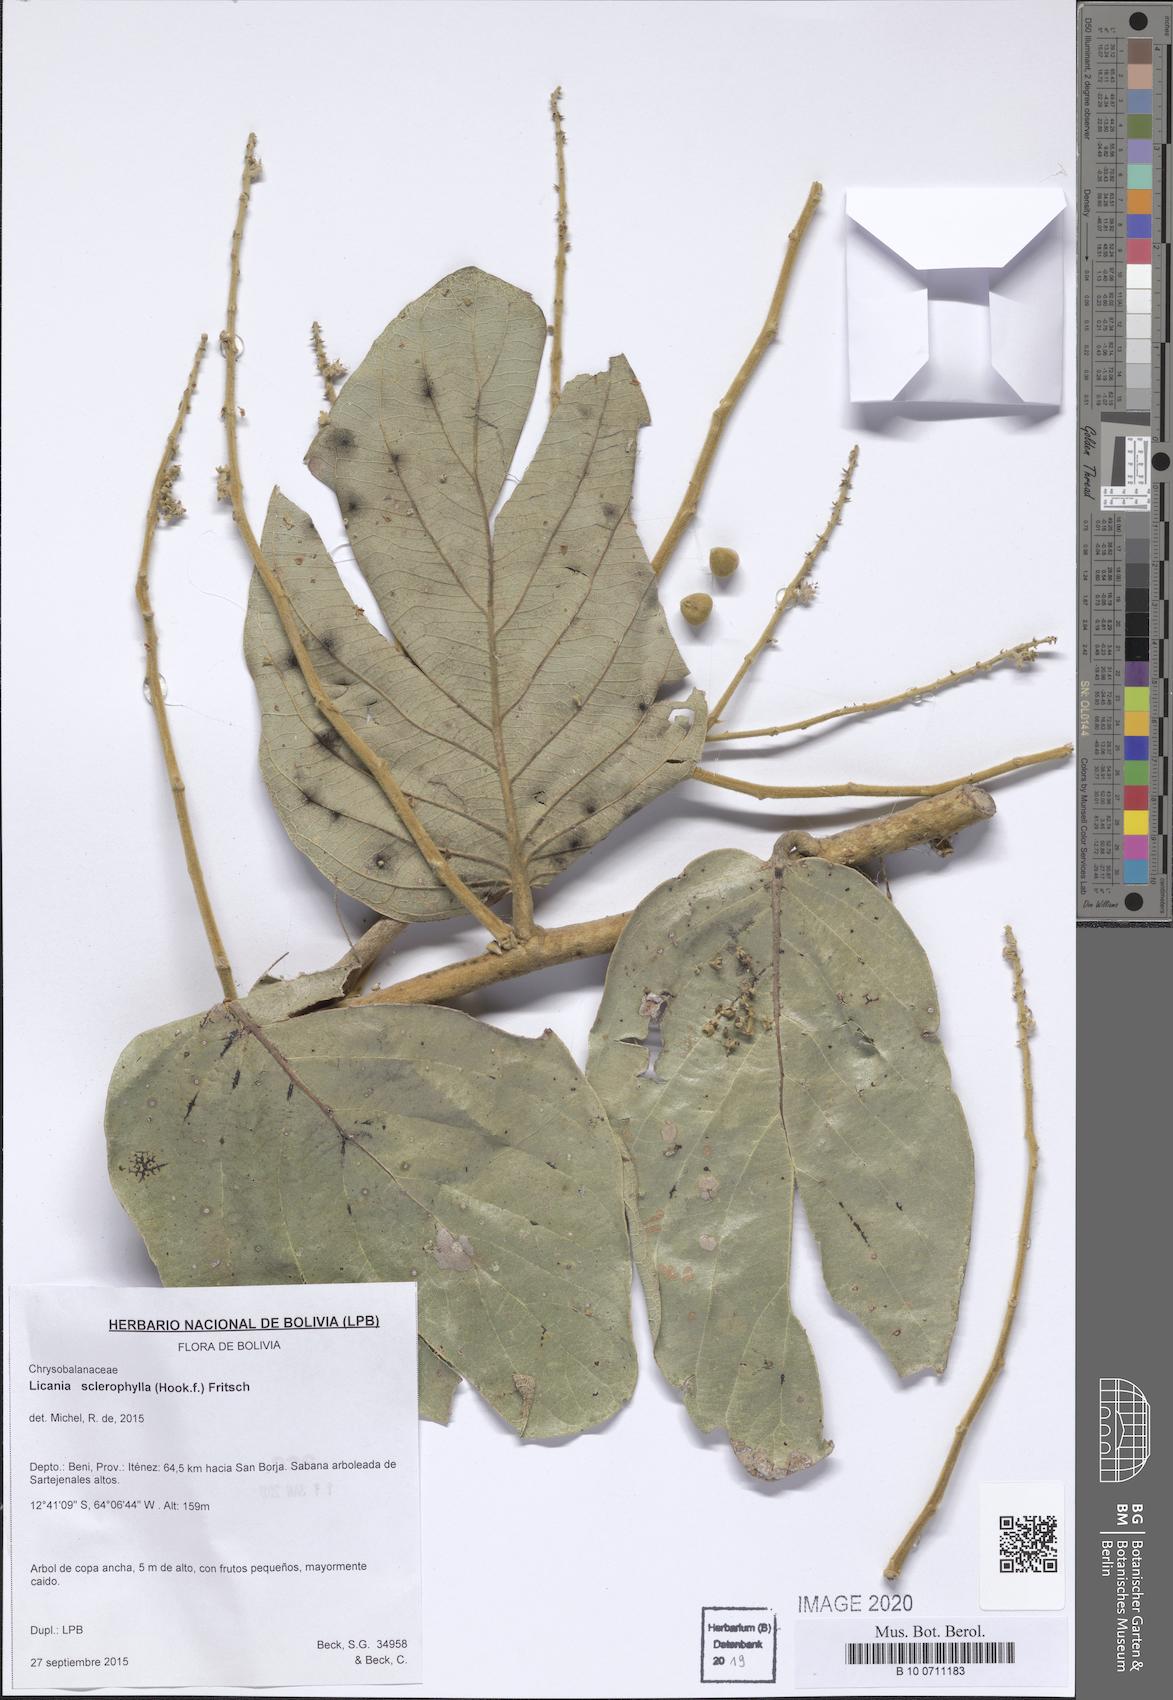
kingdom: Plantae
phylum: Tracheophyta
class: Magnoliopsida
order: Malpighiales
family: Chrysobalanaceae
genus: Leptobalanus
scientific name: Leptobalanus sclerophyllus
